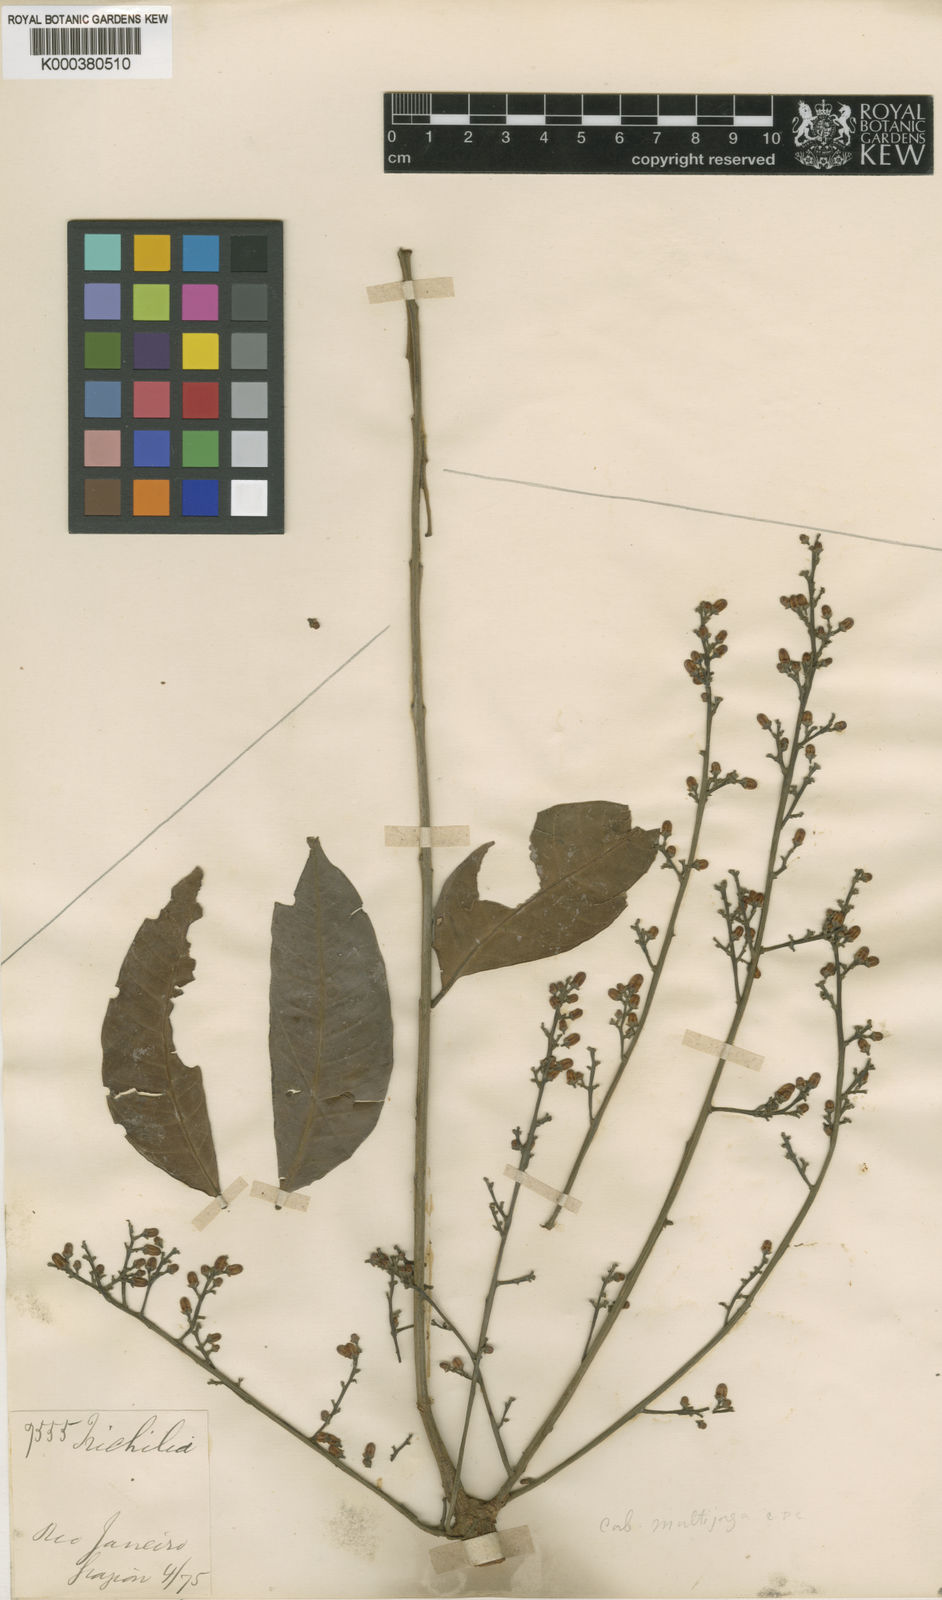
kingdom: Plantae
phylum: Tracheophyta
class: Magnoliopsida
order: Sapindales
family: Meliaceae
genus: Cabralea
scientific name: Cabralea canjerana
